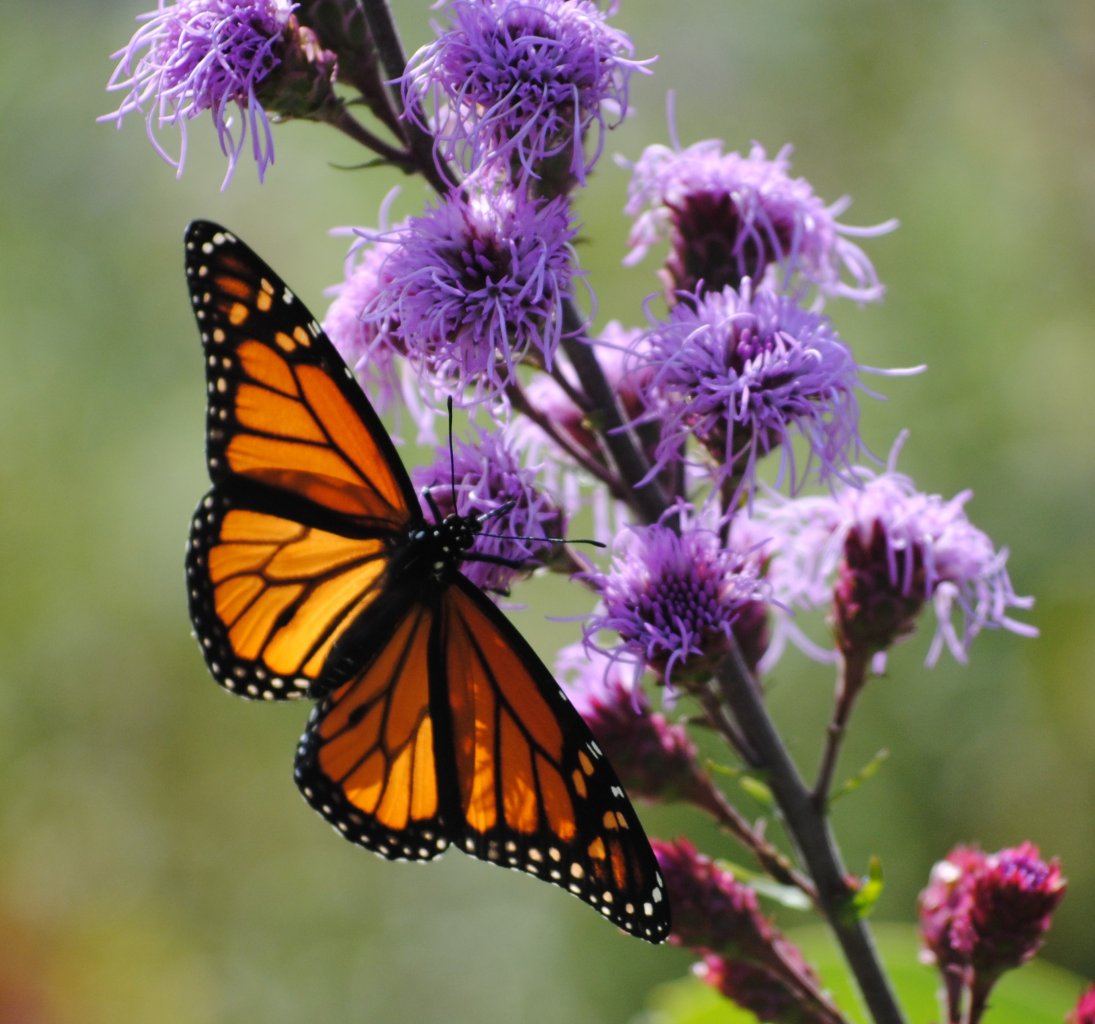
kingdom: Animalia
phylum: Arthropoda
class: Insecta
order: Lepidoptera
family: Nymphalidae
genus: Danaus
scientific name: Danaus plexippus
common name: Monarch
